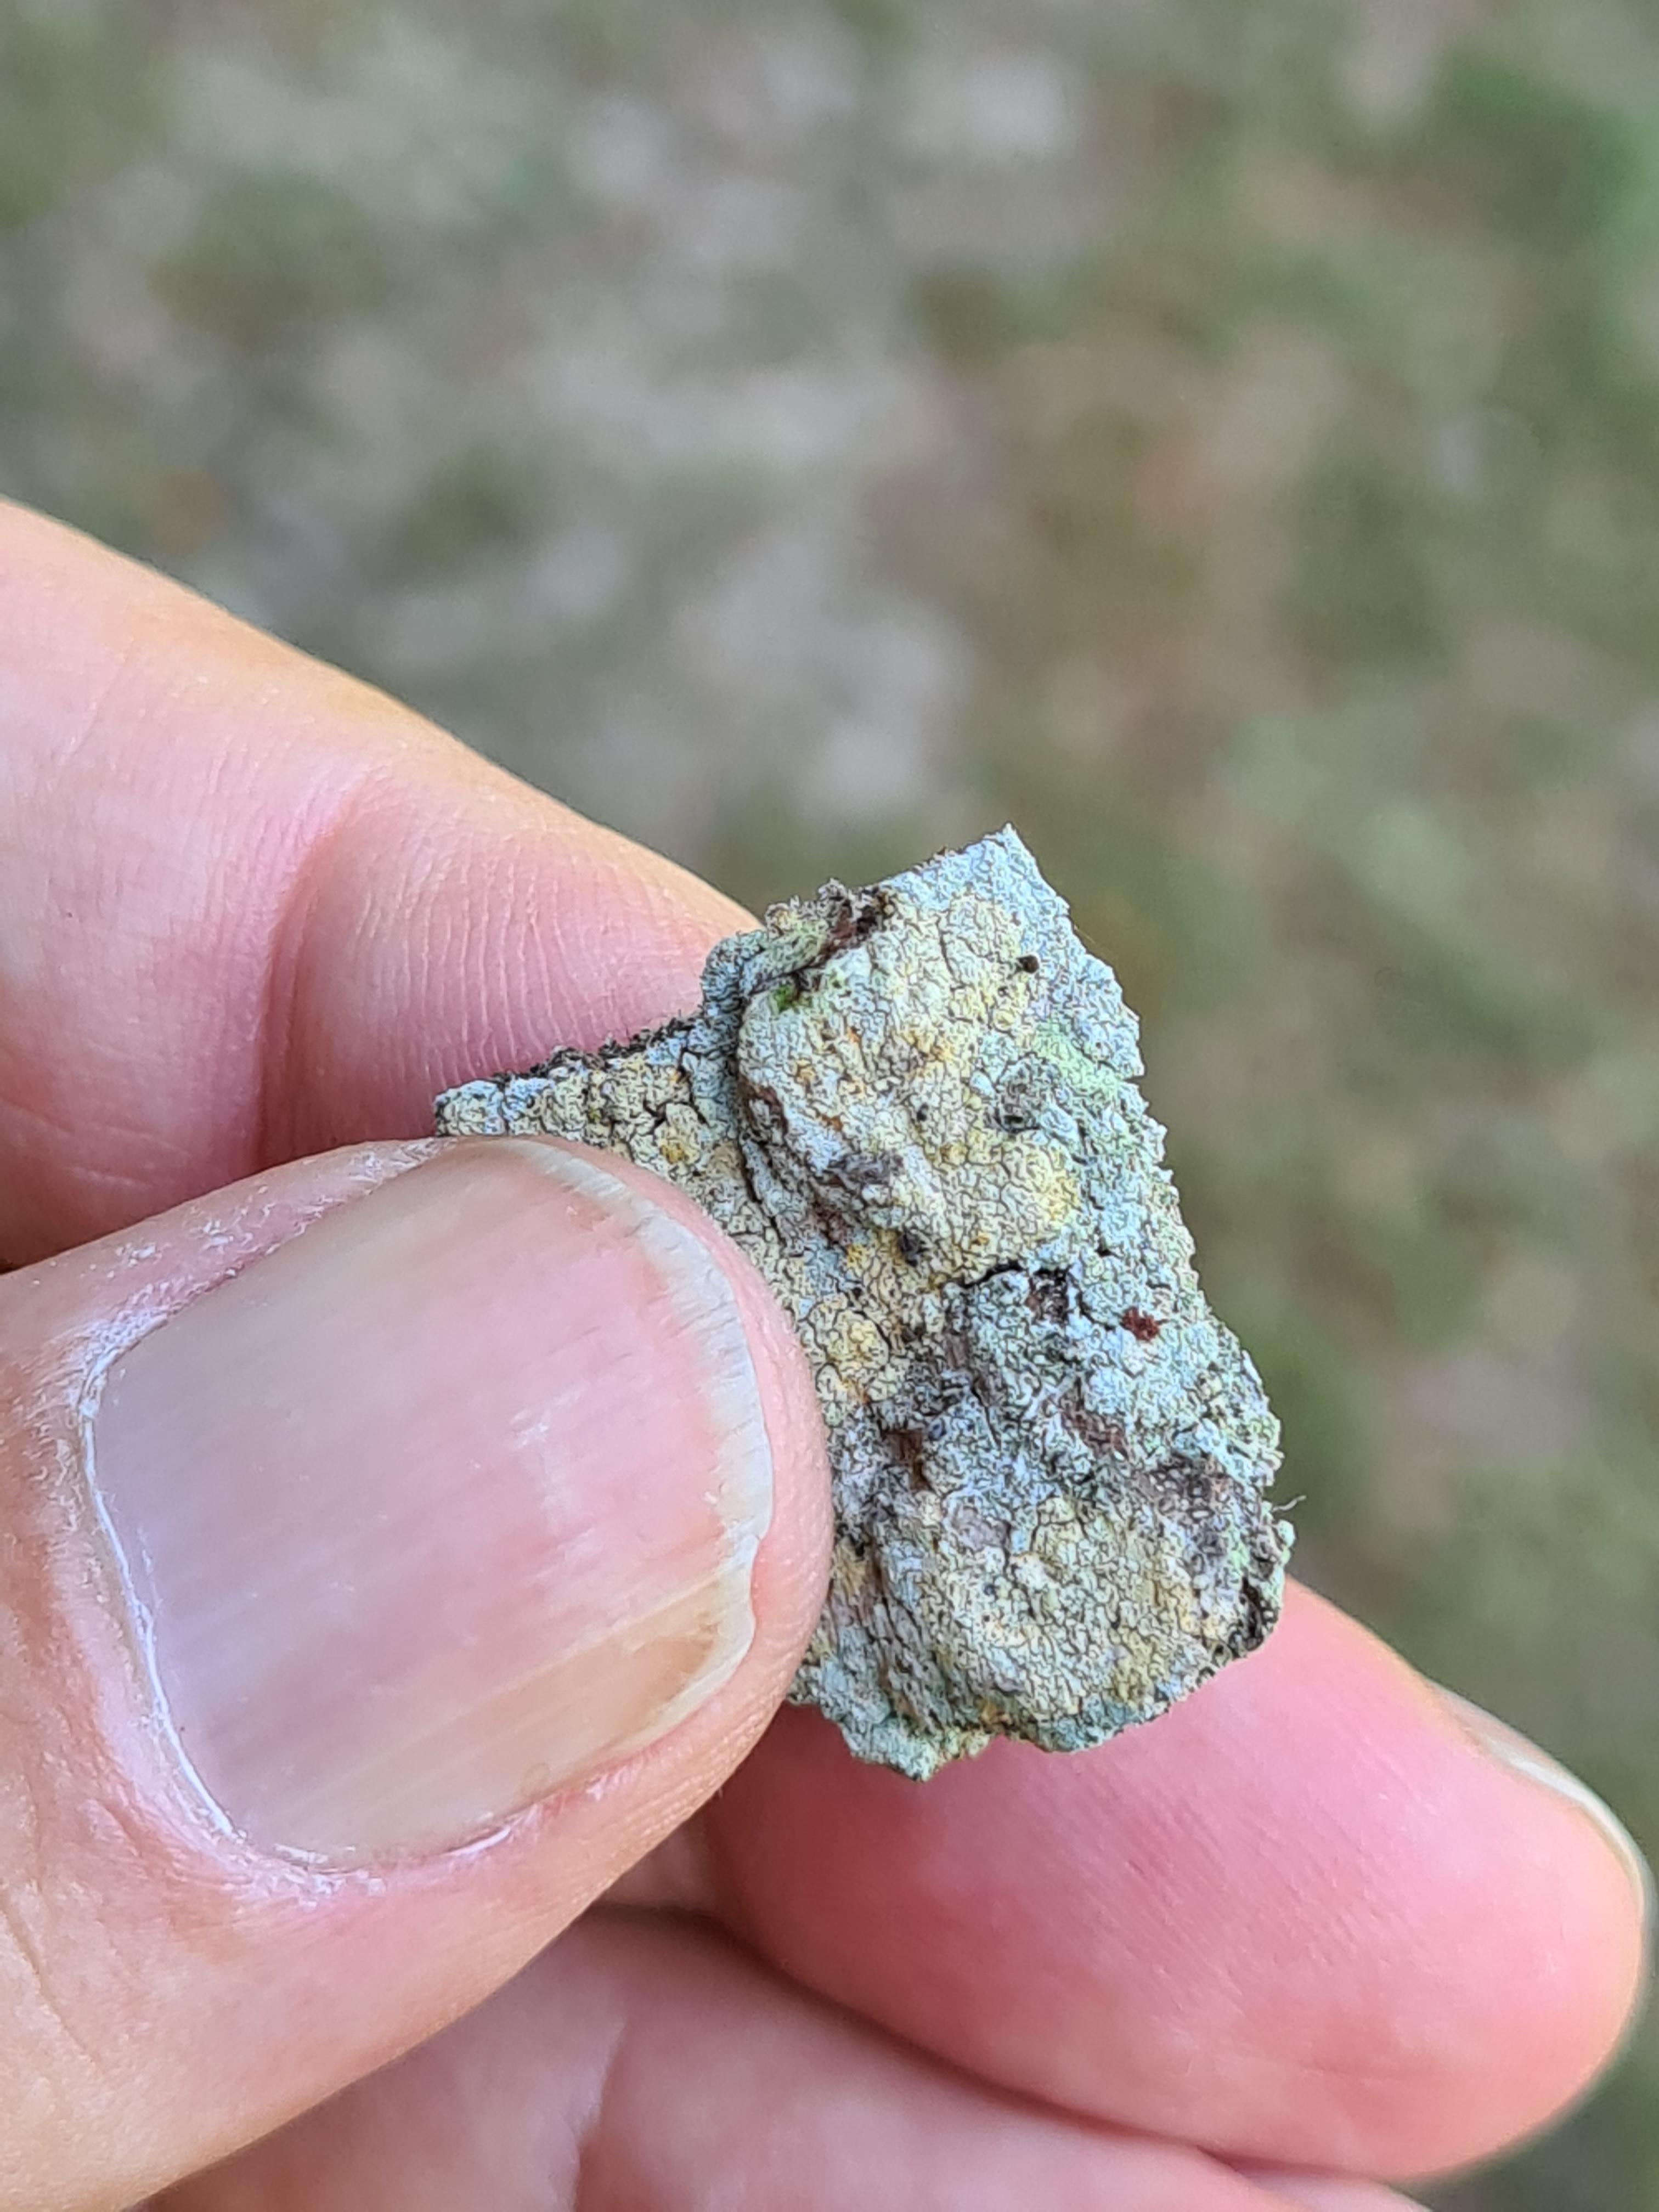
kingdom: Fungi
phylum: Ascomycota
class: Coniocybomycetes
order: Coniocybales
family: Coniocybaceae
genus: Chaenotheca
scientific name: Chaenotheca ferruginea
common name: rustbrun knappenålslav
